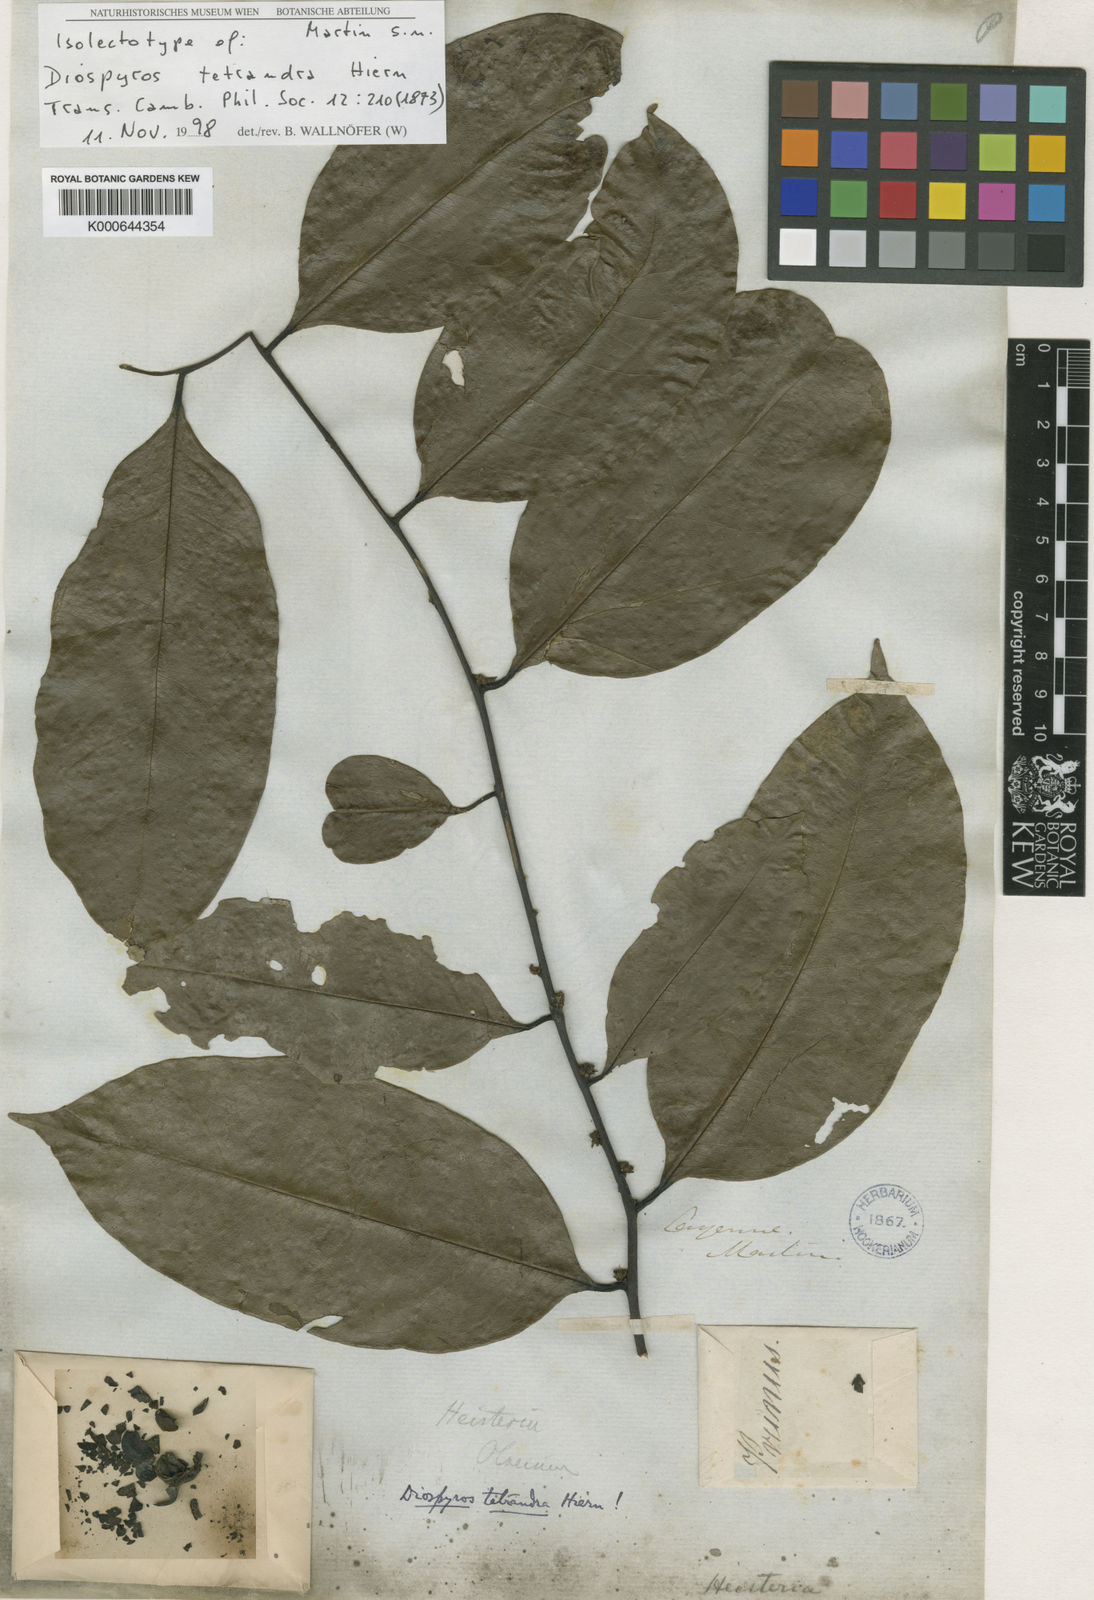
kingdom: Plantae
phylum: Tracheophyta
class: Magnoliopsida
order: Ericales
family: Ebenaceae
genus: Diospyros
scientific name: Diospyros tetrandra
